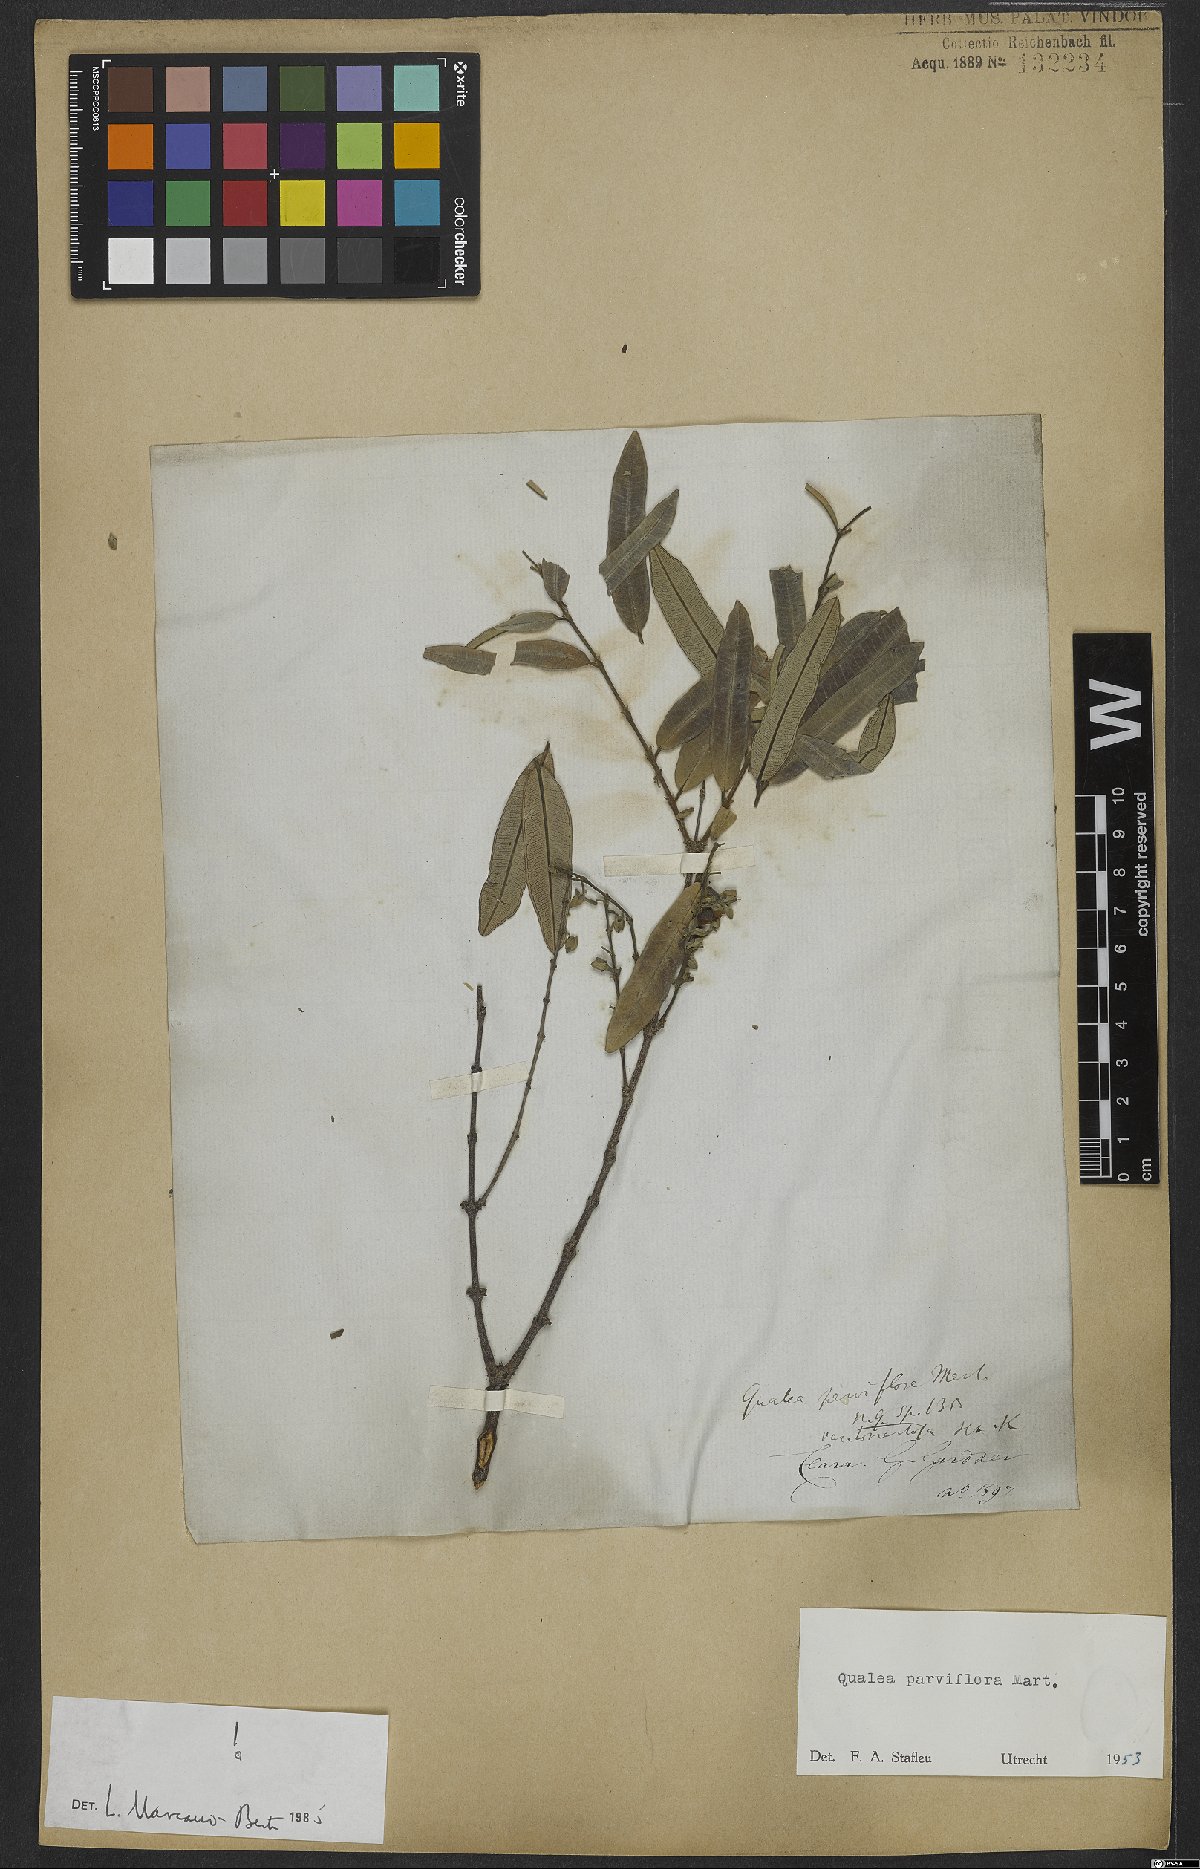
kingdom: Plantae
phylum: Tracheophyta
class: Magnoliopsida
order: Myrtales
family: Vochysiaceae
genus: Qualea
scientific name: Qualea parviflora
